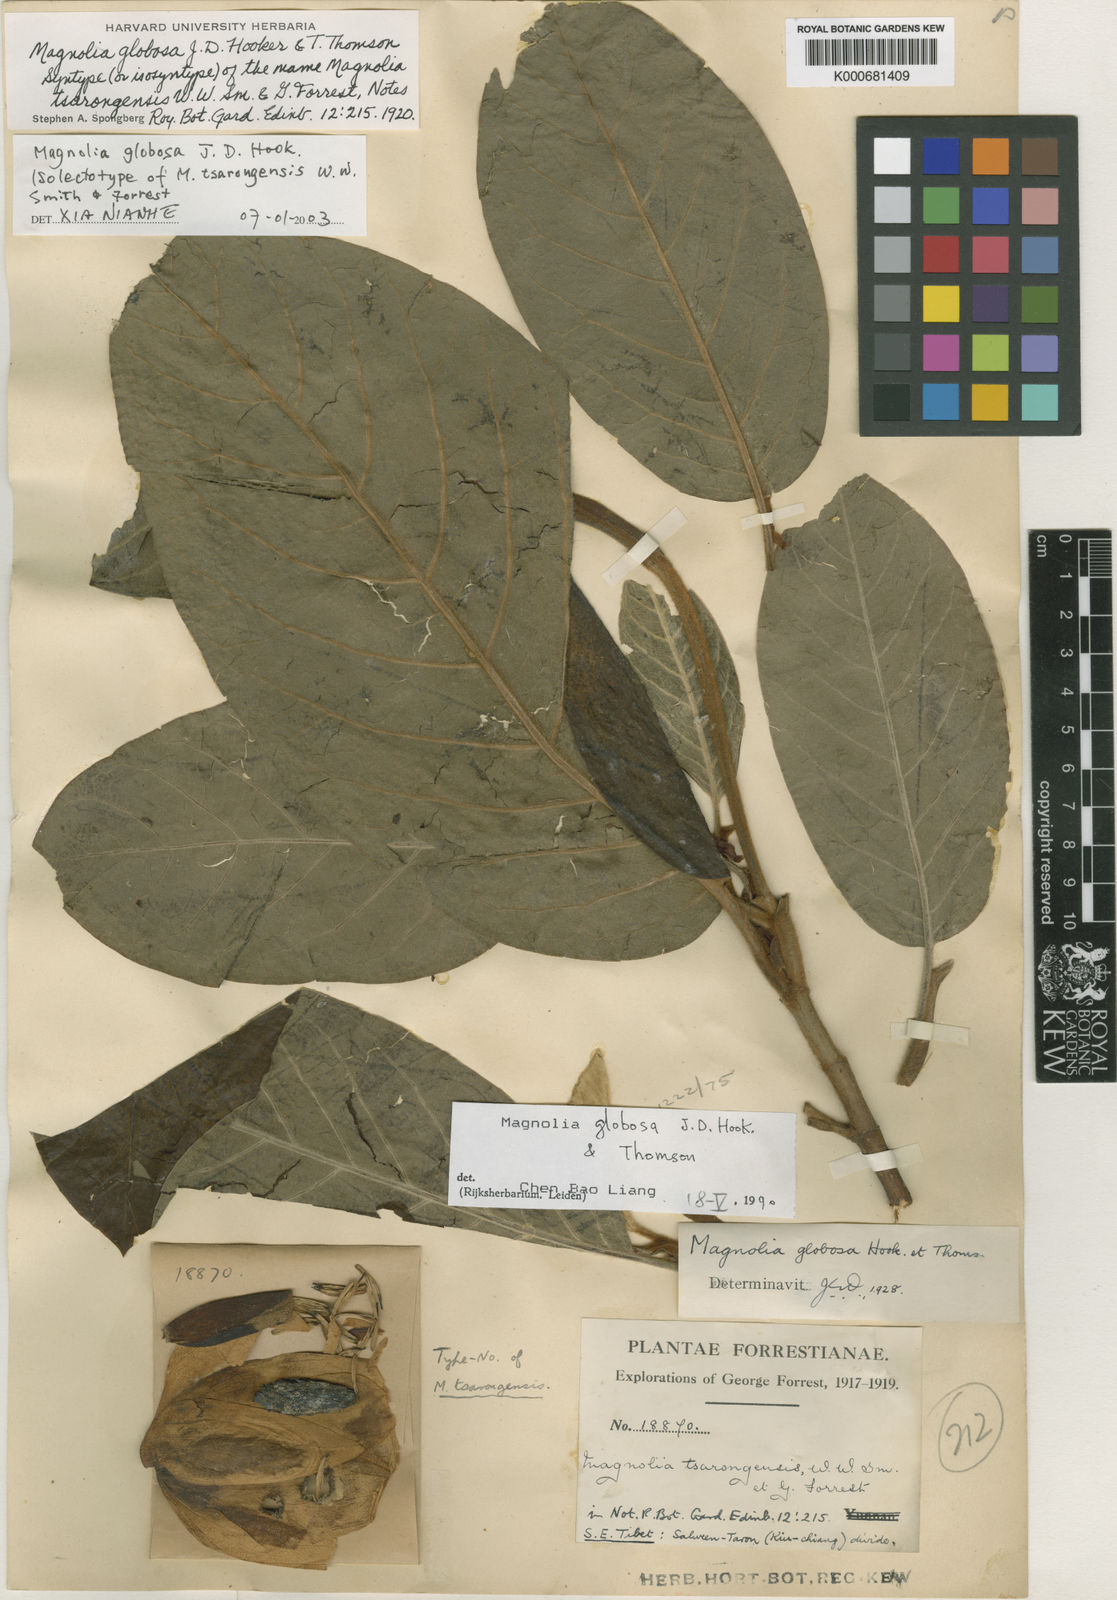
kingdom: Plantae
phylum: Tracheophyta
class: Magnoliopsida
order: Magnoliales
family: Magnoliaceae
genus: Magnolia
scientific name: Magnolia globosa
